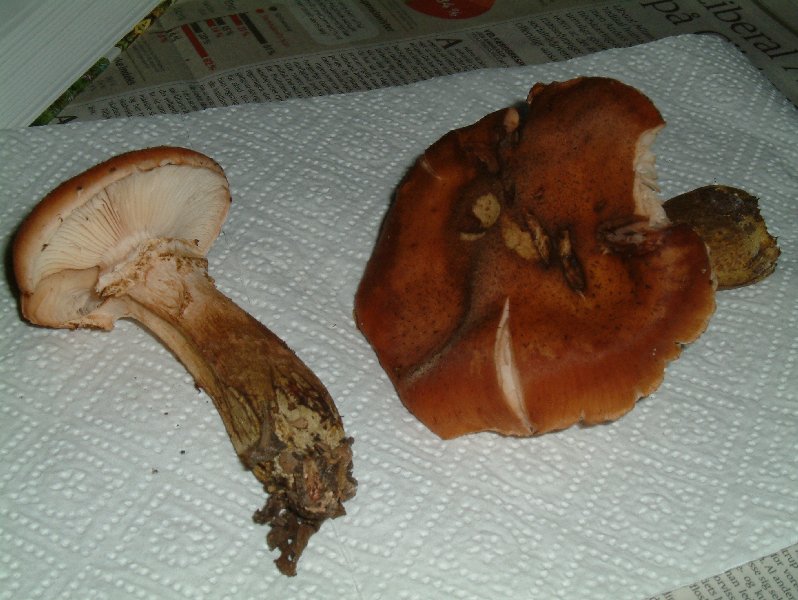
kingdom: Fungi
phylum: Basidiomycota
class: Agaricomycetes
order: Agaricales
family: Physalacriaceae
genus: Armillaria
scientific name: Armillaria ostoyae
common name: mørk honningsvamp
